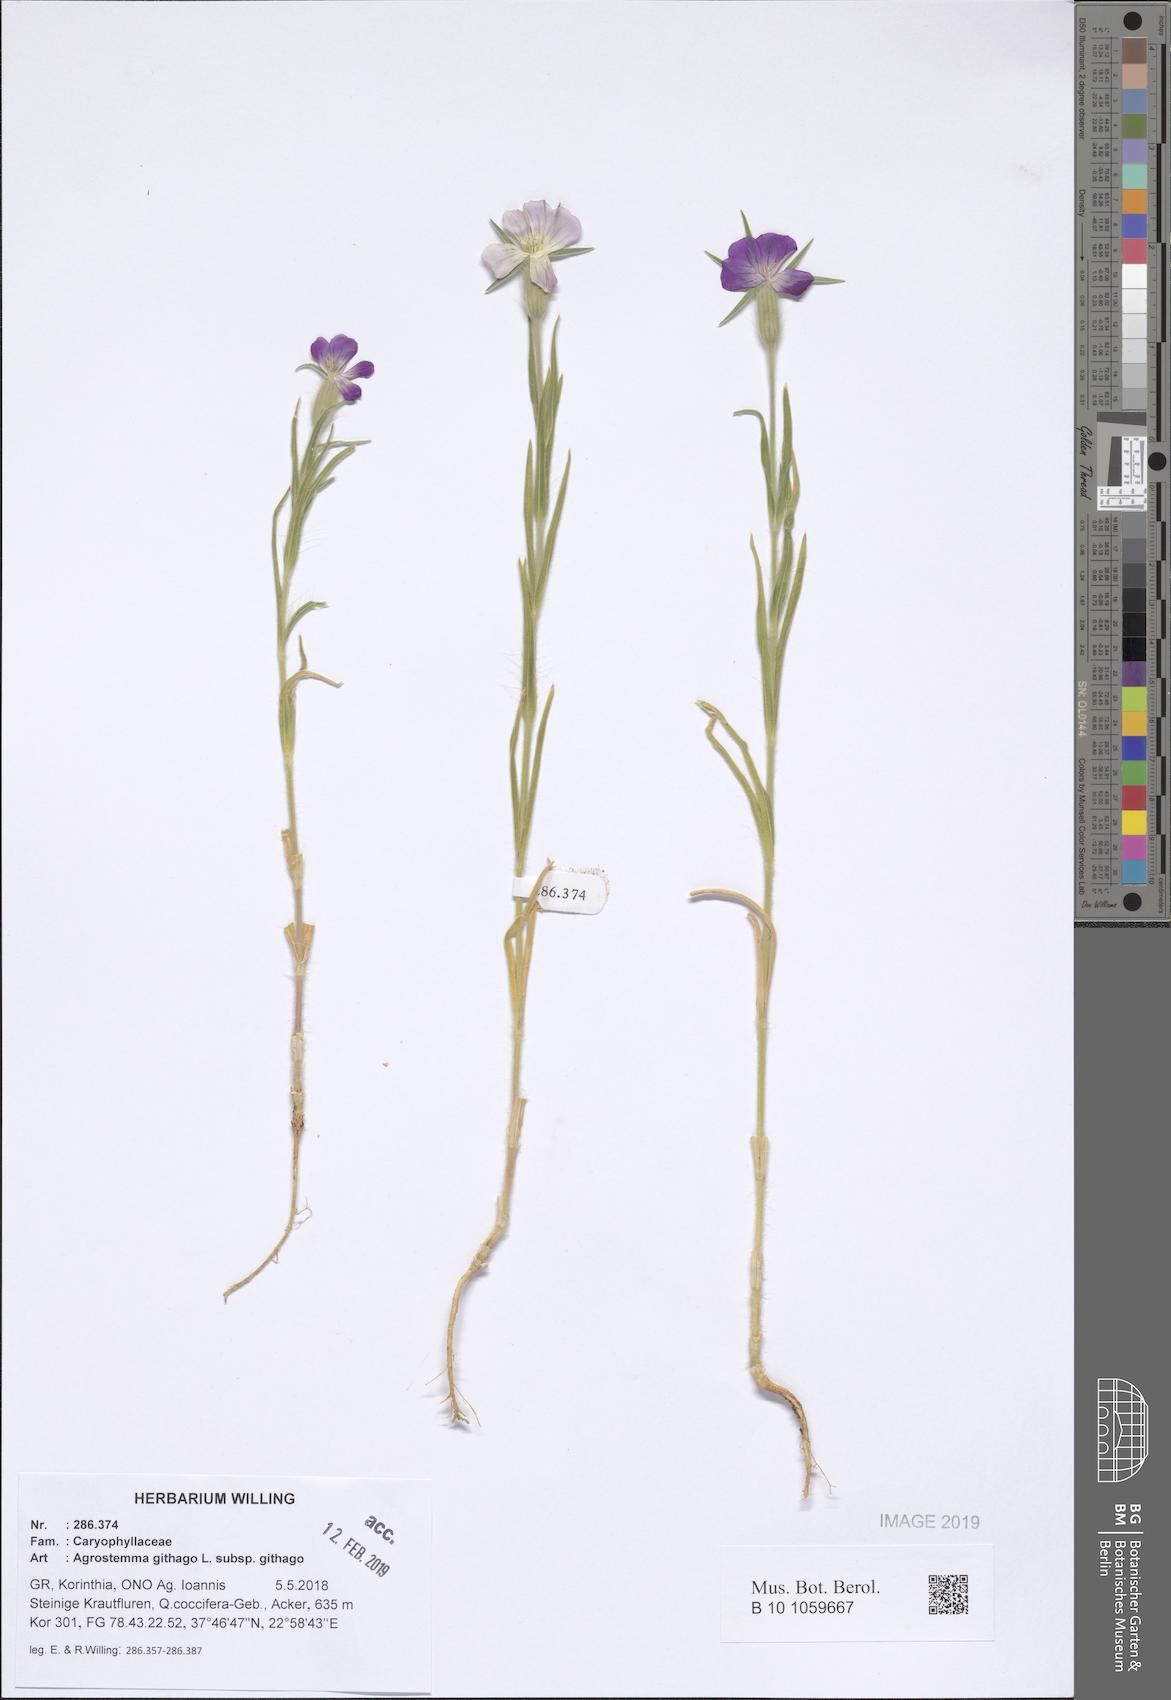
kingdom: Plantae
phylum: Tracheophyta
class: Magnoliopsida
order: Caryophyllales
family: Caryophyllaceae
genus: Agrostemma
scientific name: Agrostemma githago
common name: Common corncockle
